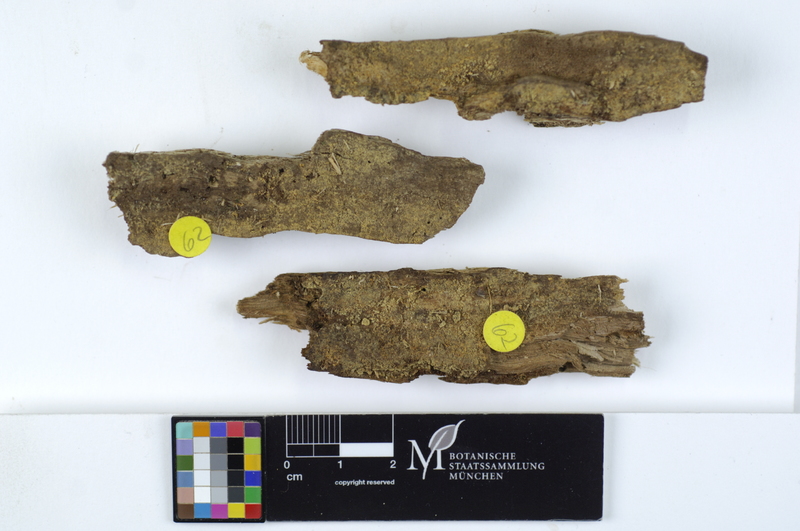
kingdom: Plantae
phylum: Tracheophyta
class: Magnoliopsida
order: Fagales
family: Betulaceae
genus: Alnus
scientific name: Alnus
